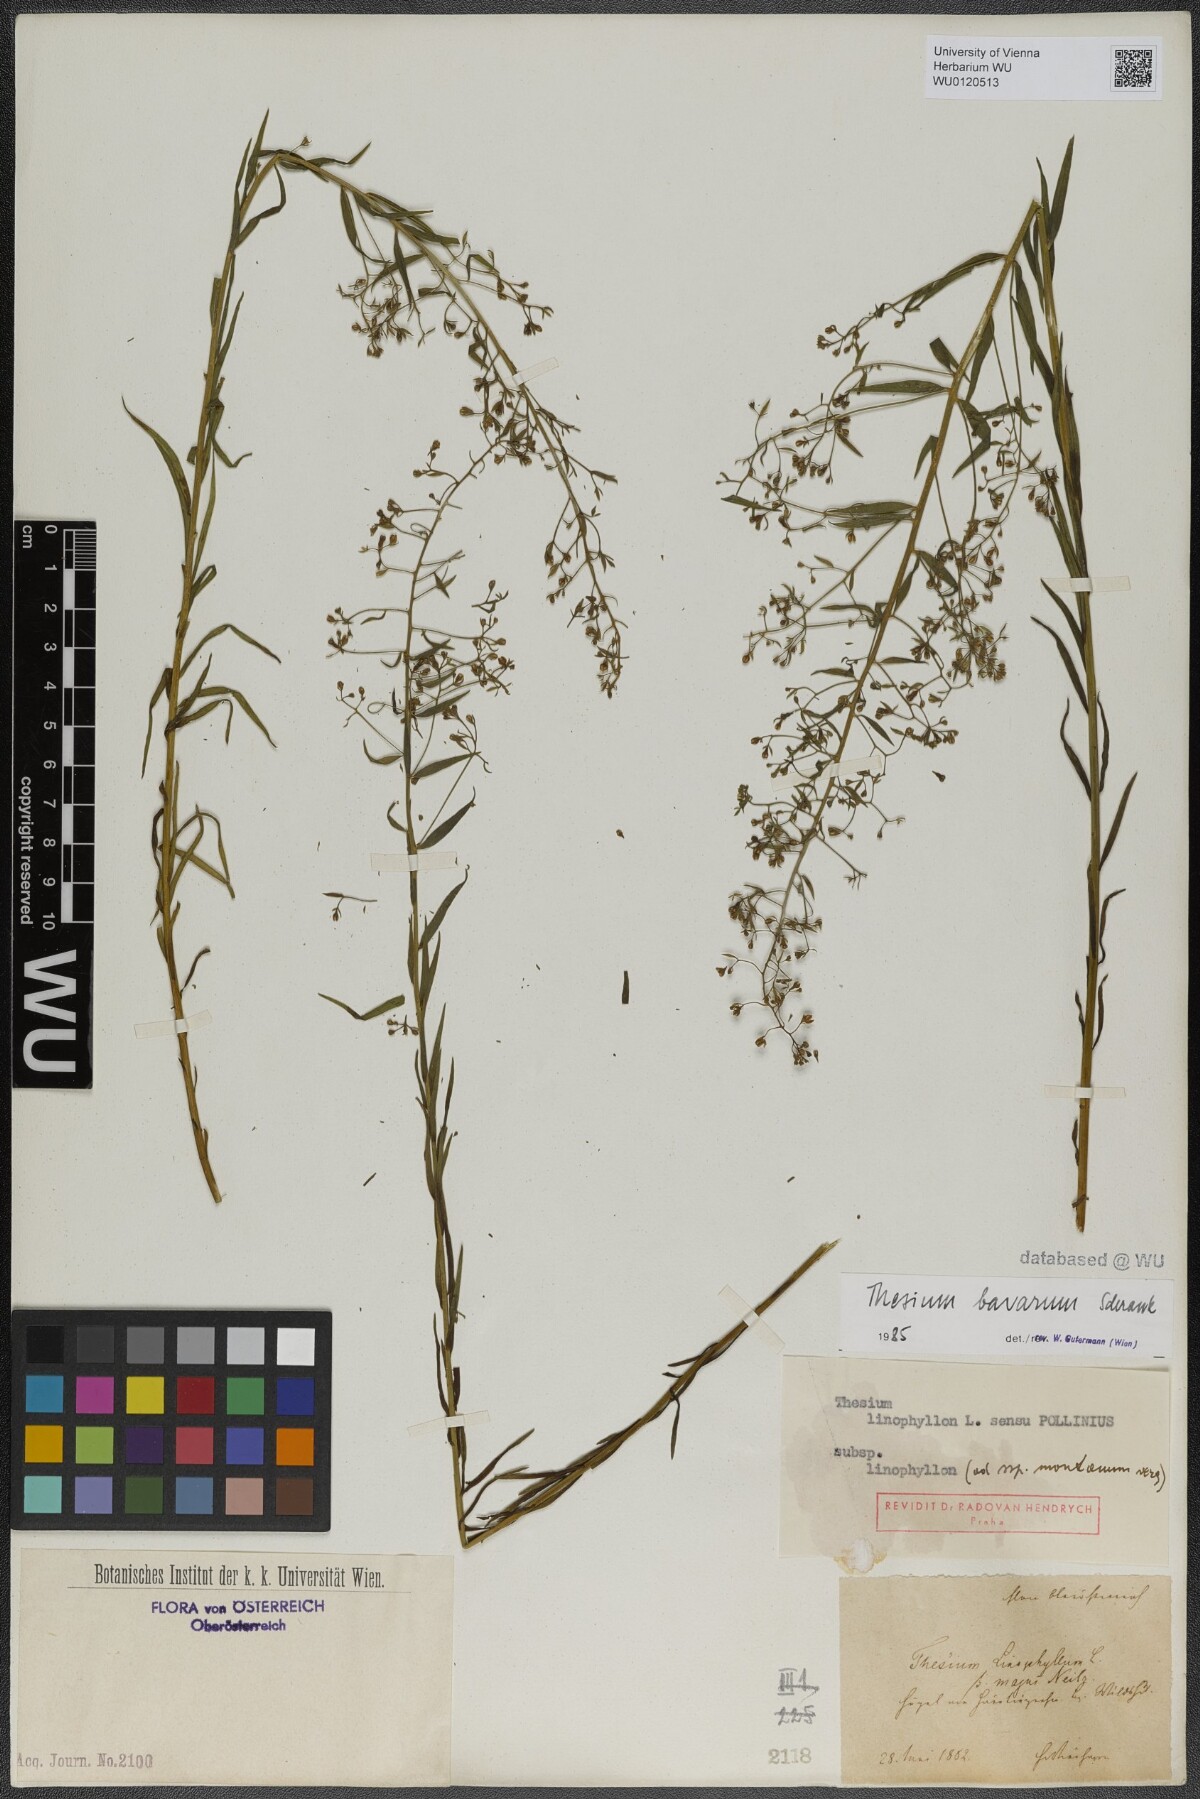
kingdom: Plantae
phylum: Tracheophyta
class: Magnoliopsida
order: Santalales
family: Thesiaceae
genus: Thesium
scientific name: Thesium bavarum
